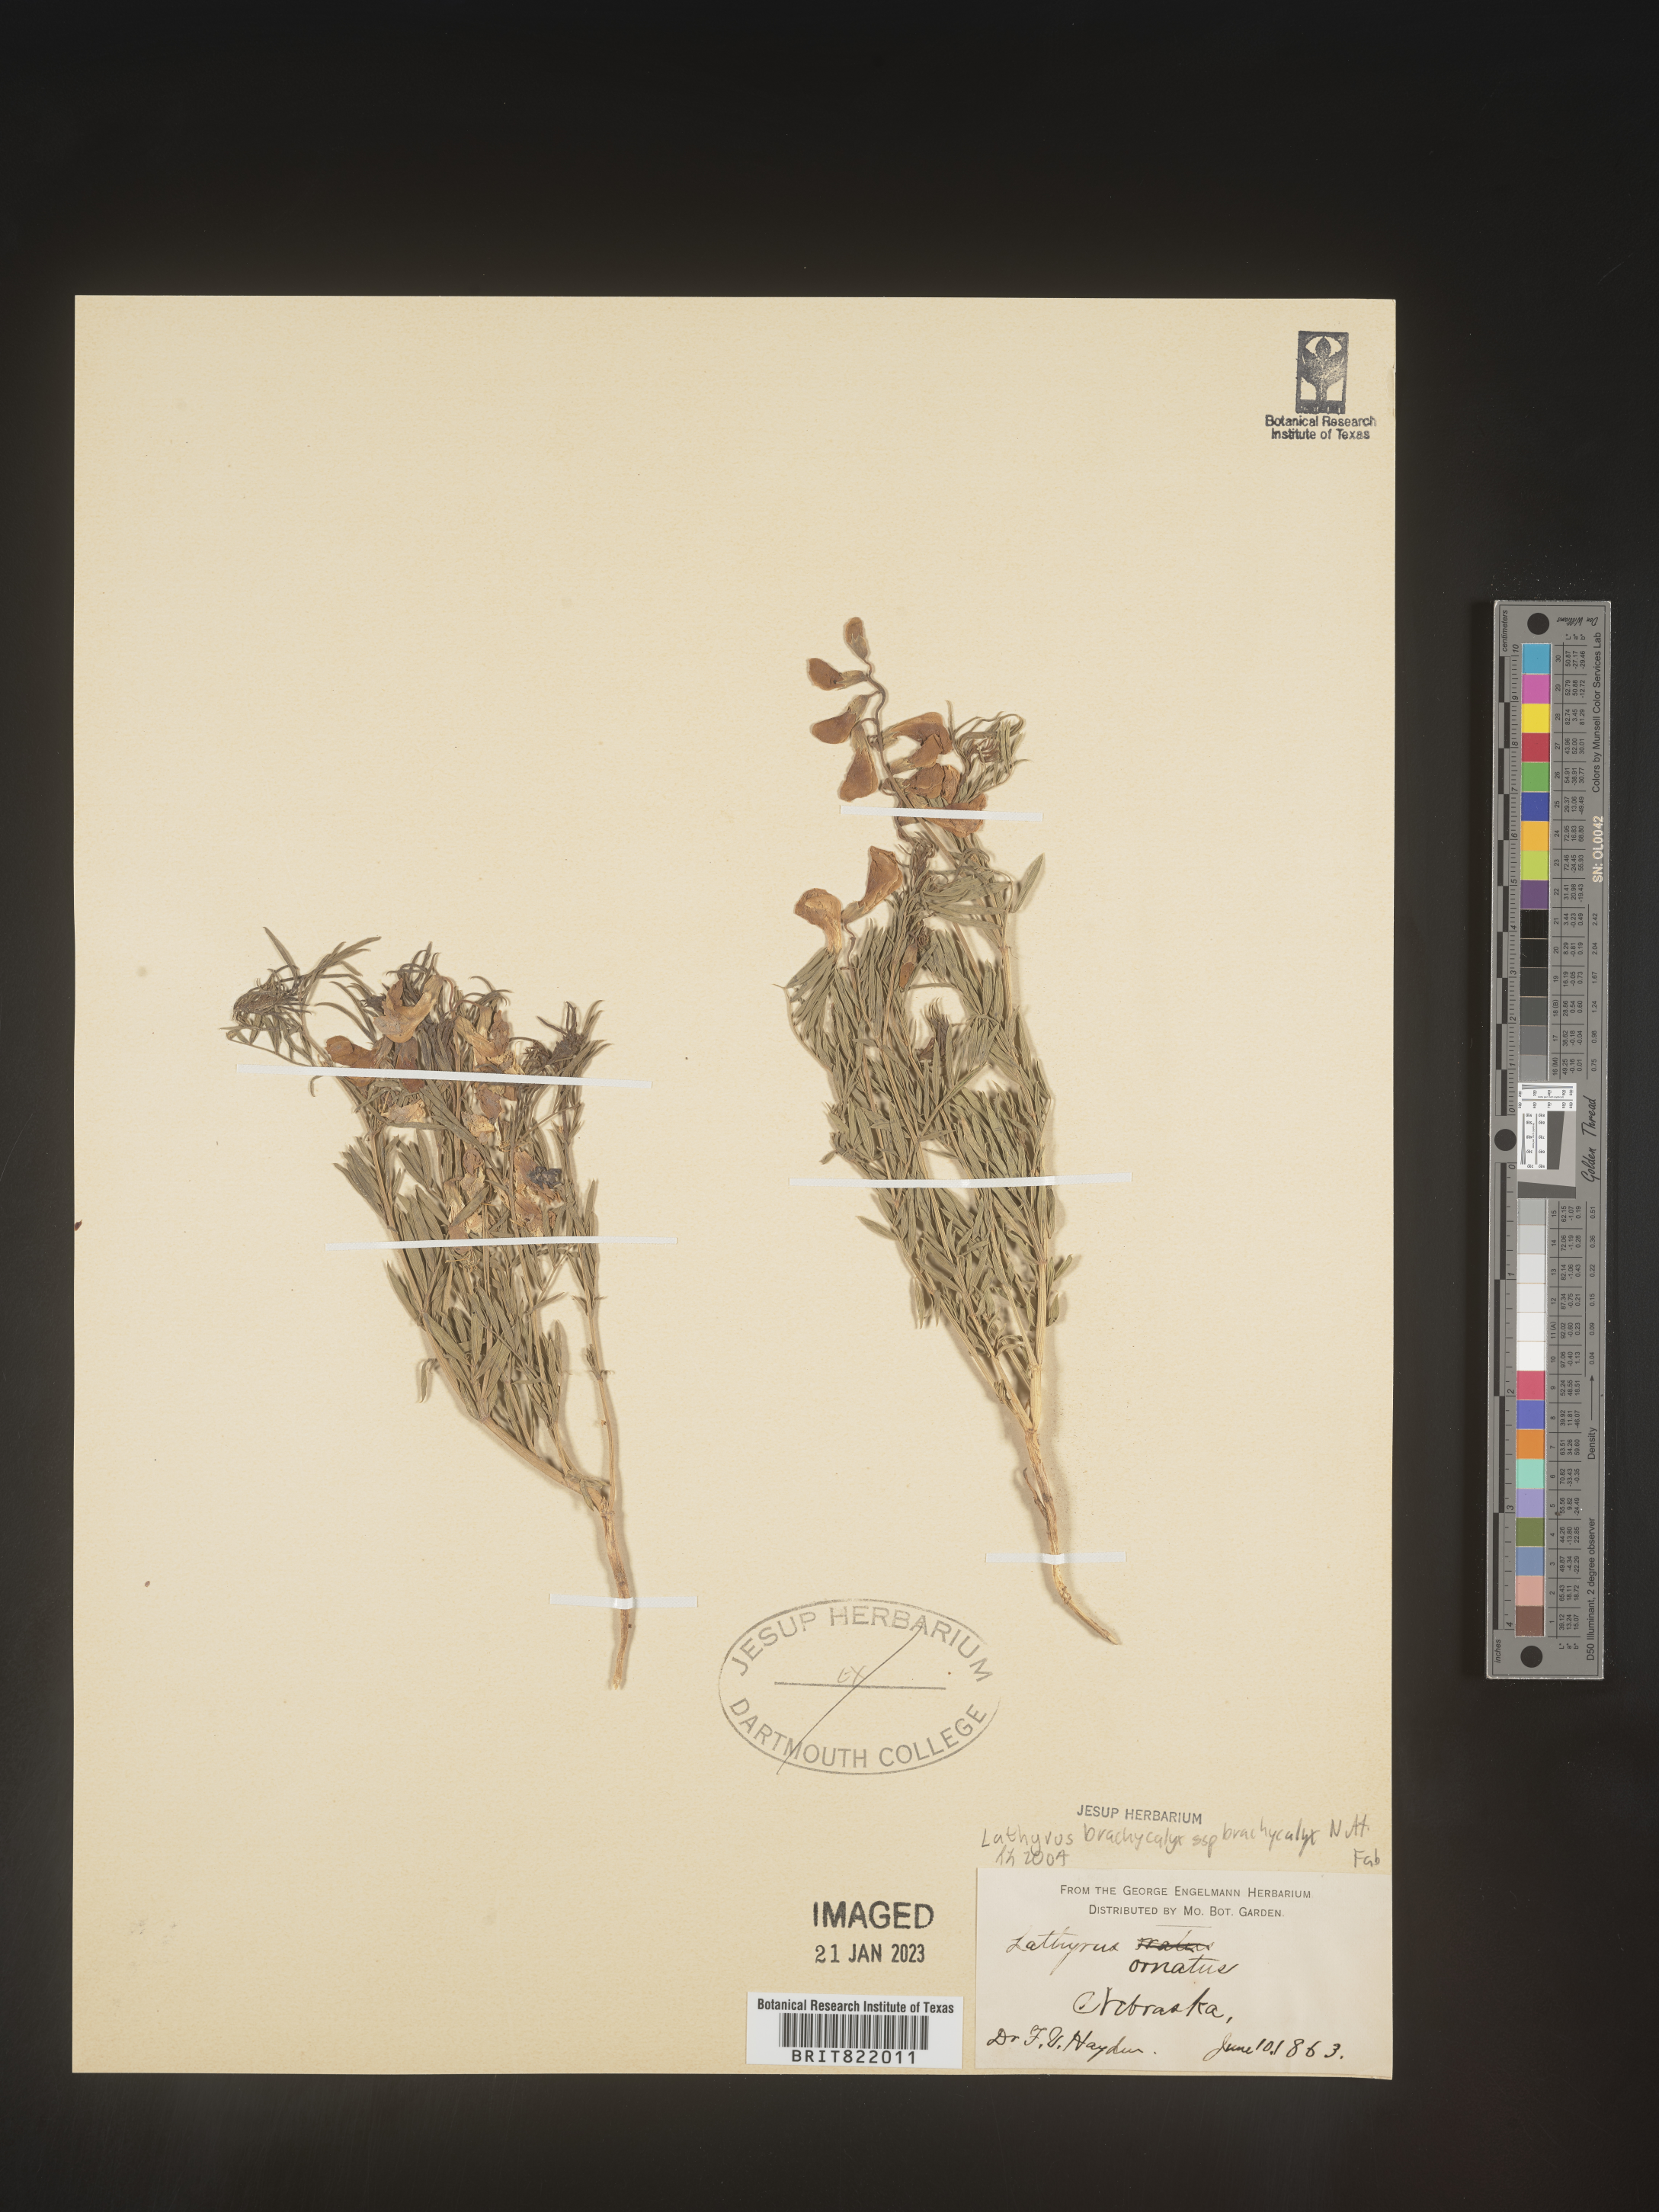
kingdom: Plantae
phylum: Tracheophyta
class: Magnoliopsida
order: Fabales
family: Fabaceae
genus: Lathyrus
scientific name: Lathyrus
